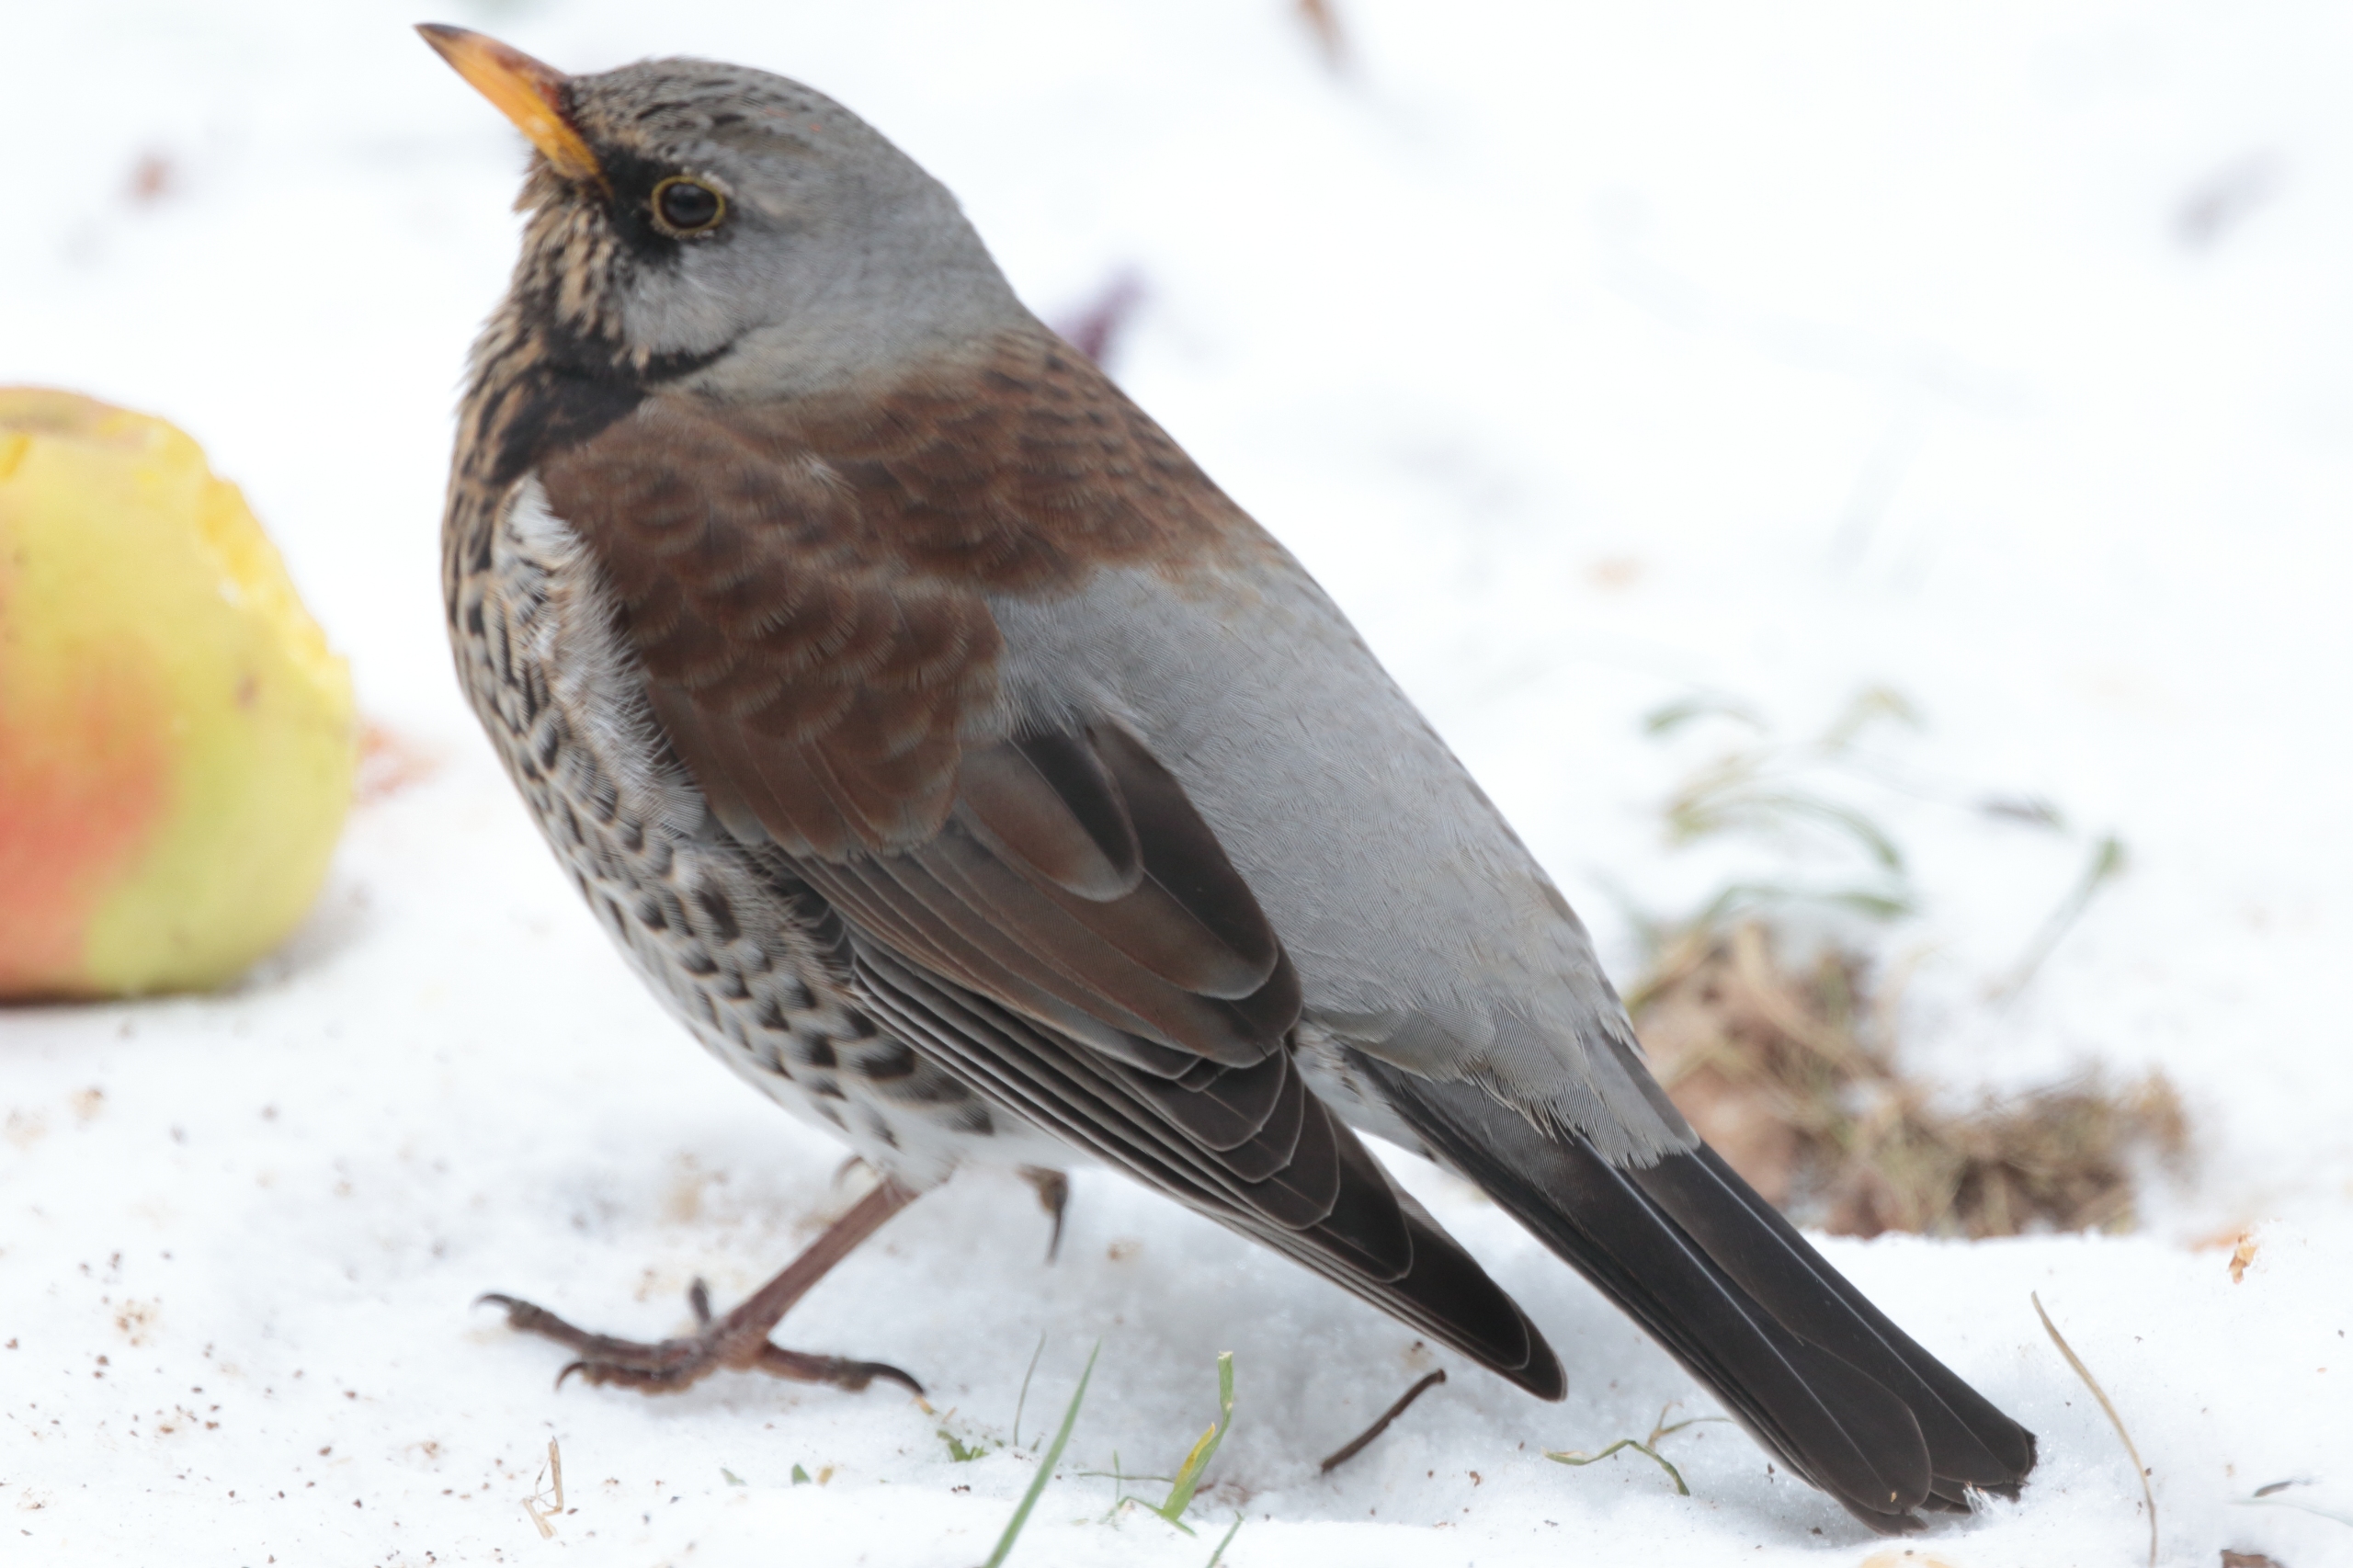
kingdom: Animalia
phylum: Chordata
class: Aves
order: Passeriformes
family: Turdidae
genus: Turdus
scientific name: Turdus pilaris
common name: Sjagger
